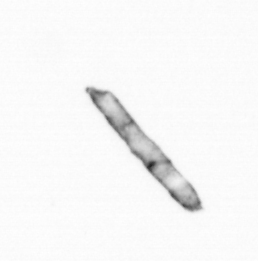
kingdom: Chromista
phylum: Ochrophyta
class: Bacillariophyceae
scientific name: Bacillariophyceae
